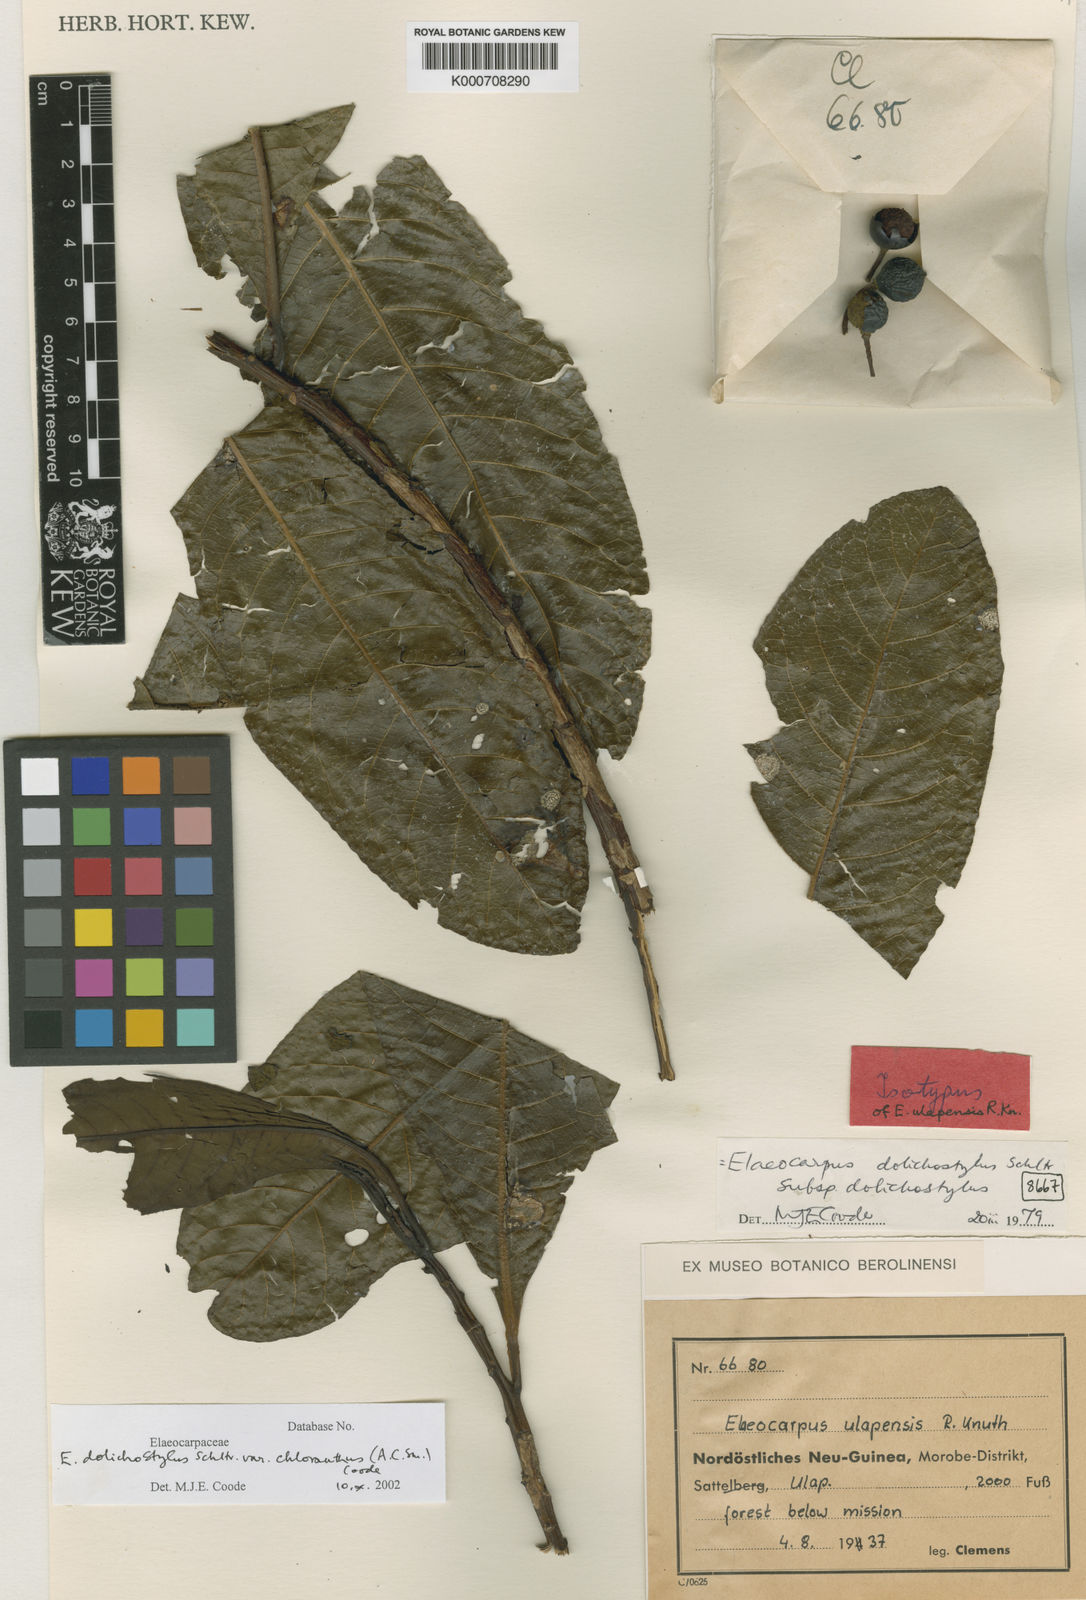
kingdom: Plantae
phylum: Tracheophyta
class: Magnoliopsida
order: Oxalidales
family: Elaeocarpaceae
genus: Elaeocarpus
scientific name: Elaeocarpus dolichostylus
